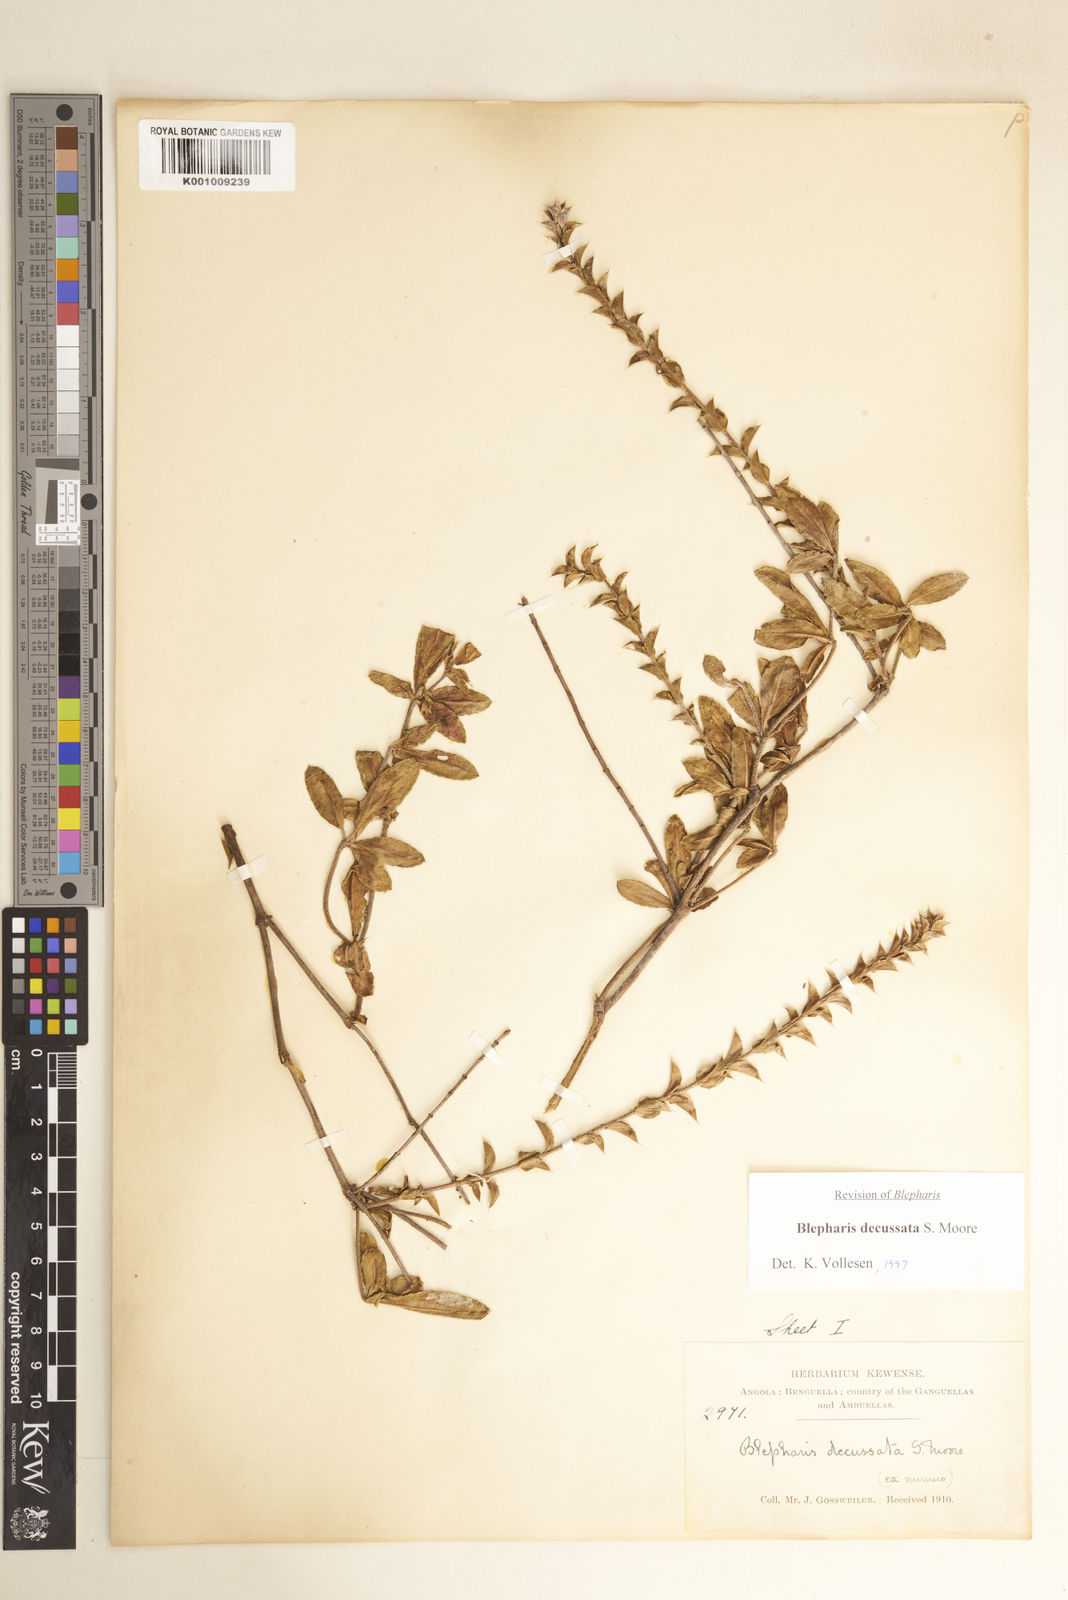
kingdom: Plantae
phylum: Tracheophyta
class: Magnoliopsida
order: Lamiales
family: Acanthaceae
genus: Blepharis
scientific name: Blepharis decussata
